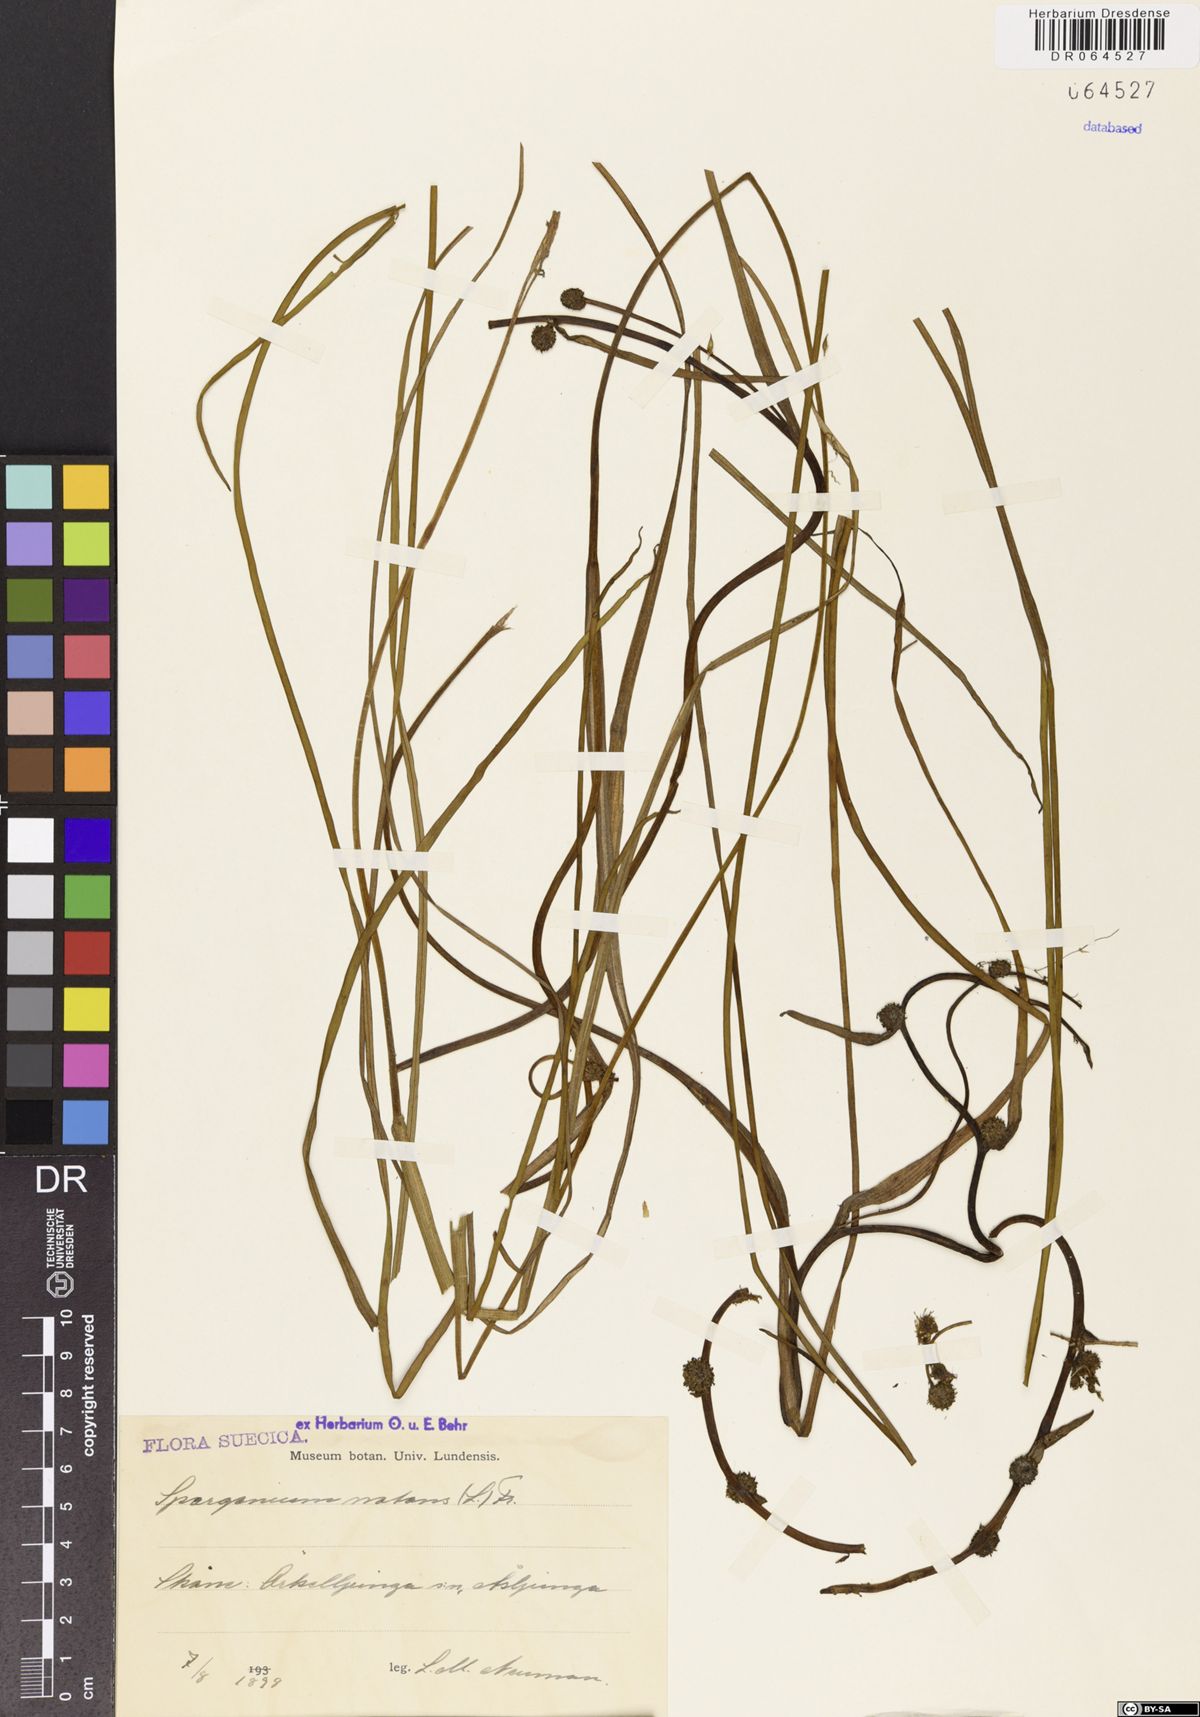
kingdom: Plantae
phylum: Tracheophyta
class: Liliopsida
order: Poales
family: Typhaceae
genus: Sparganium
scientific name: Sparganium natans
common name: Least bur-reed
